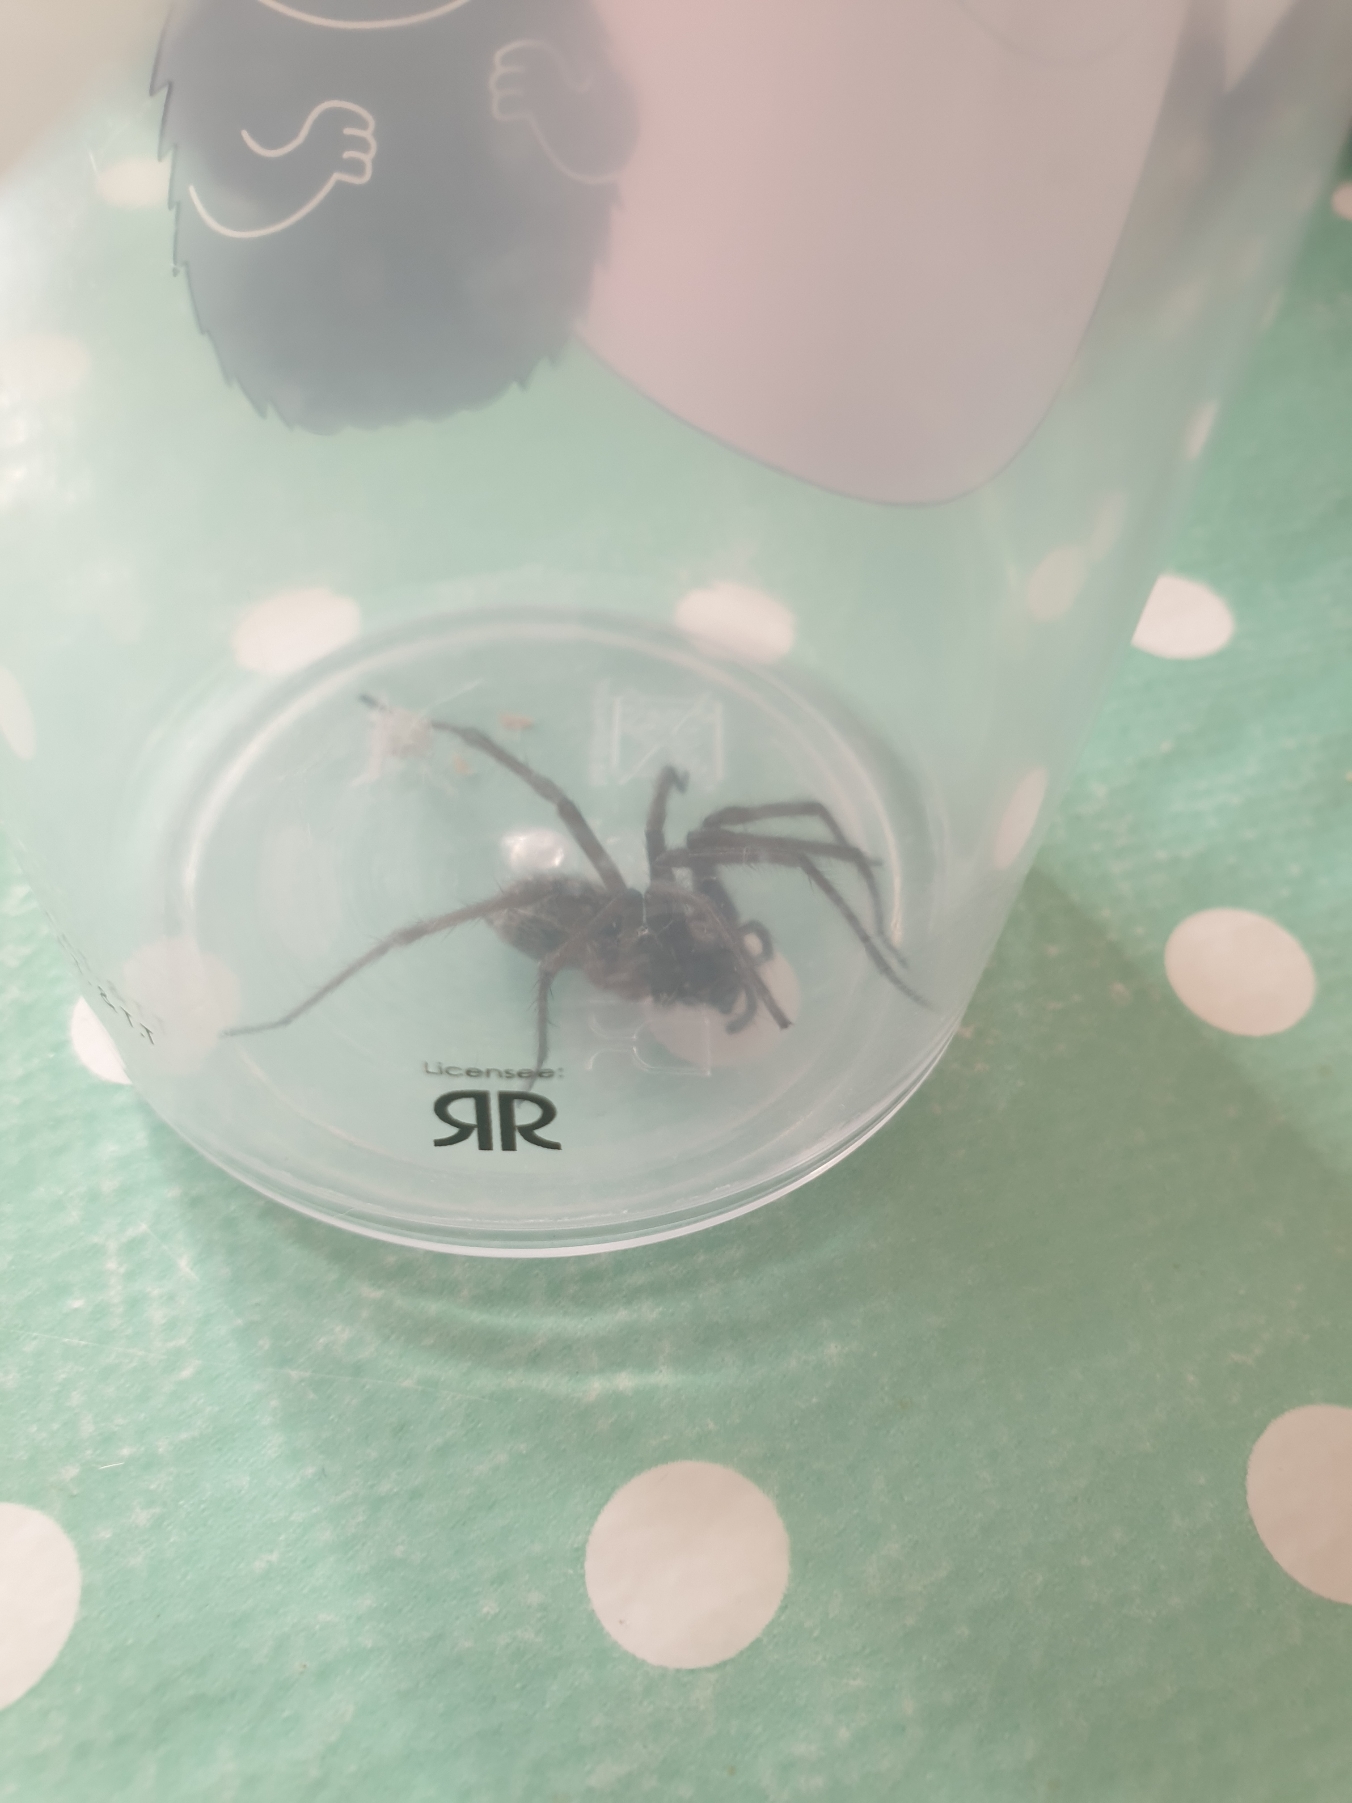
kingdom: Animalia
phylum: Arthropoda
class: Arachnida
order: Araneae
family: Agelenidae
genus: Eratigena
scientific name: Eratigena atrica
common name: Stor husedderkop
